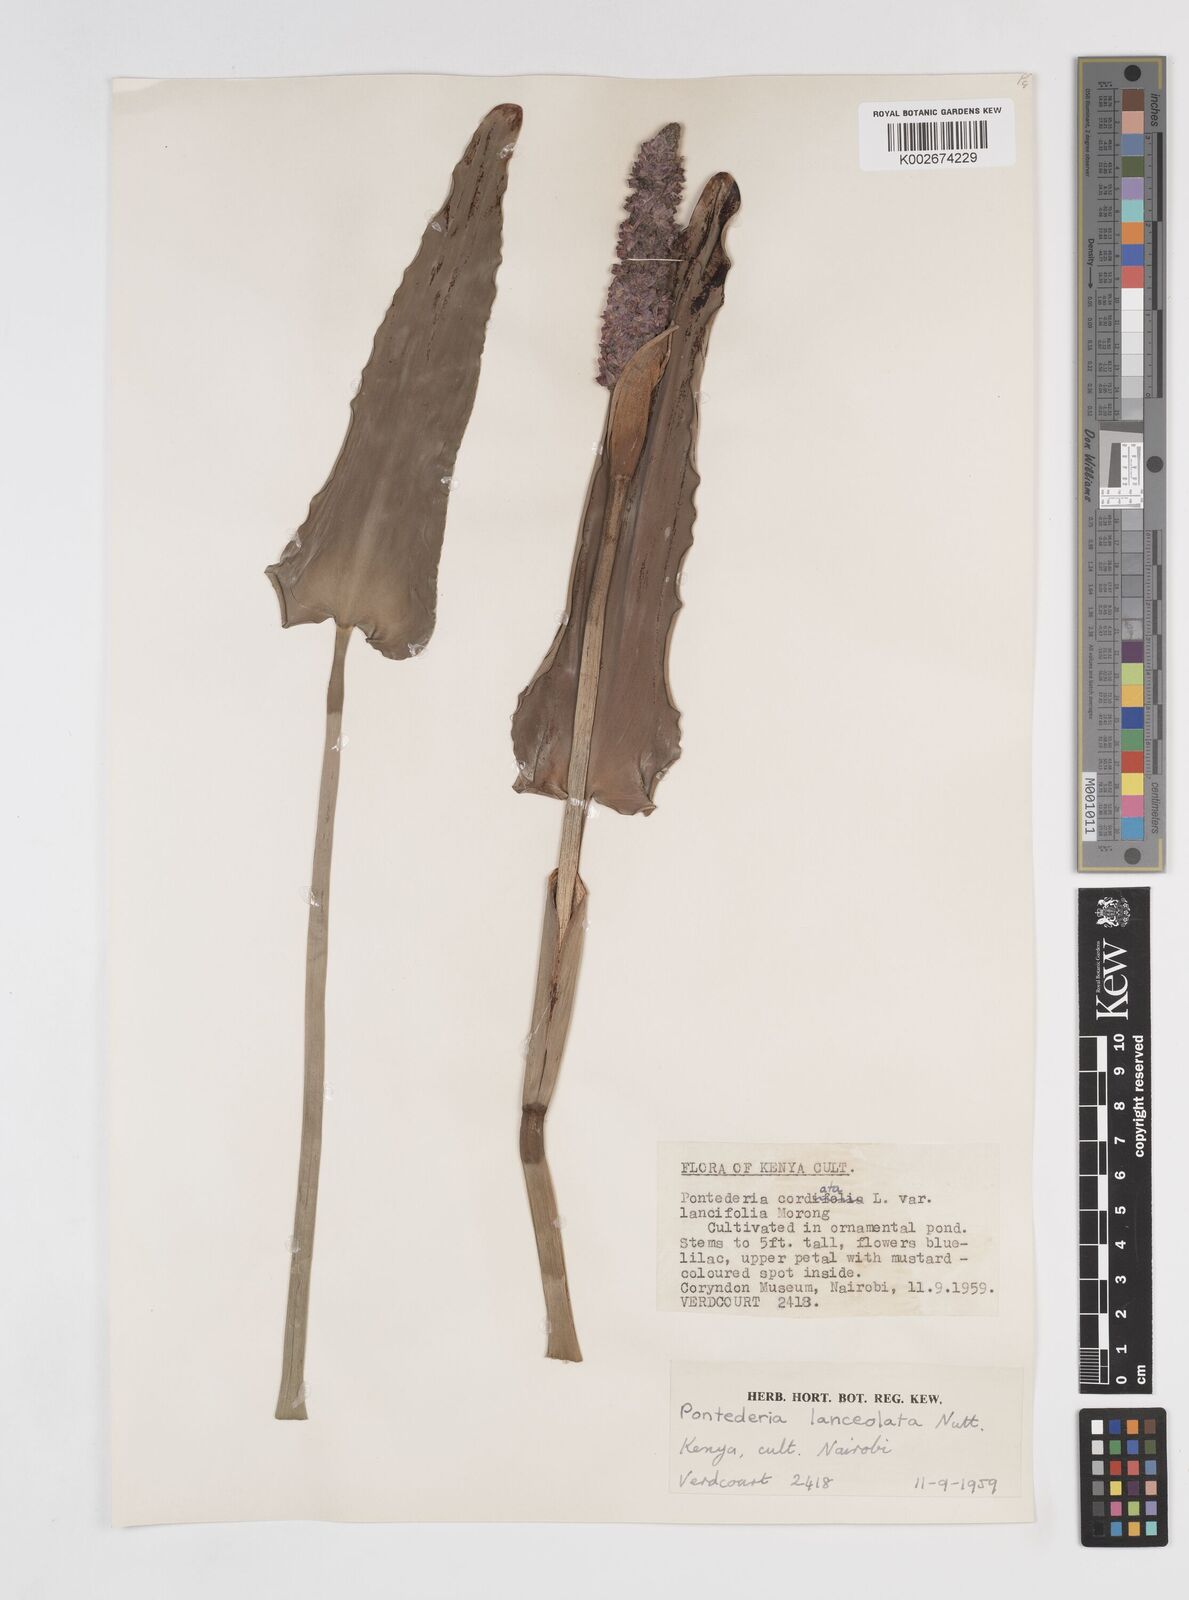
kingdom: Plantae
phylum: Tracheophyta
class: Liliopsida
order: Commelinales
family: Pontederiaceae
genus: Pontederia
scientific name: Pontederia
